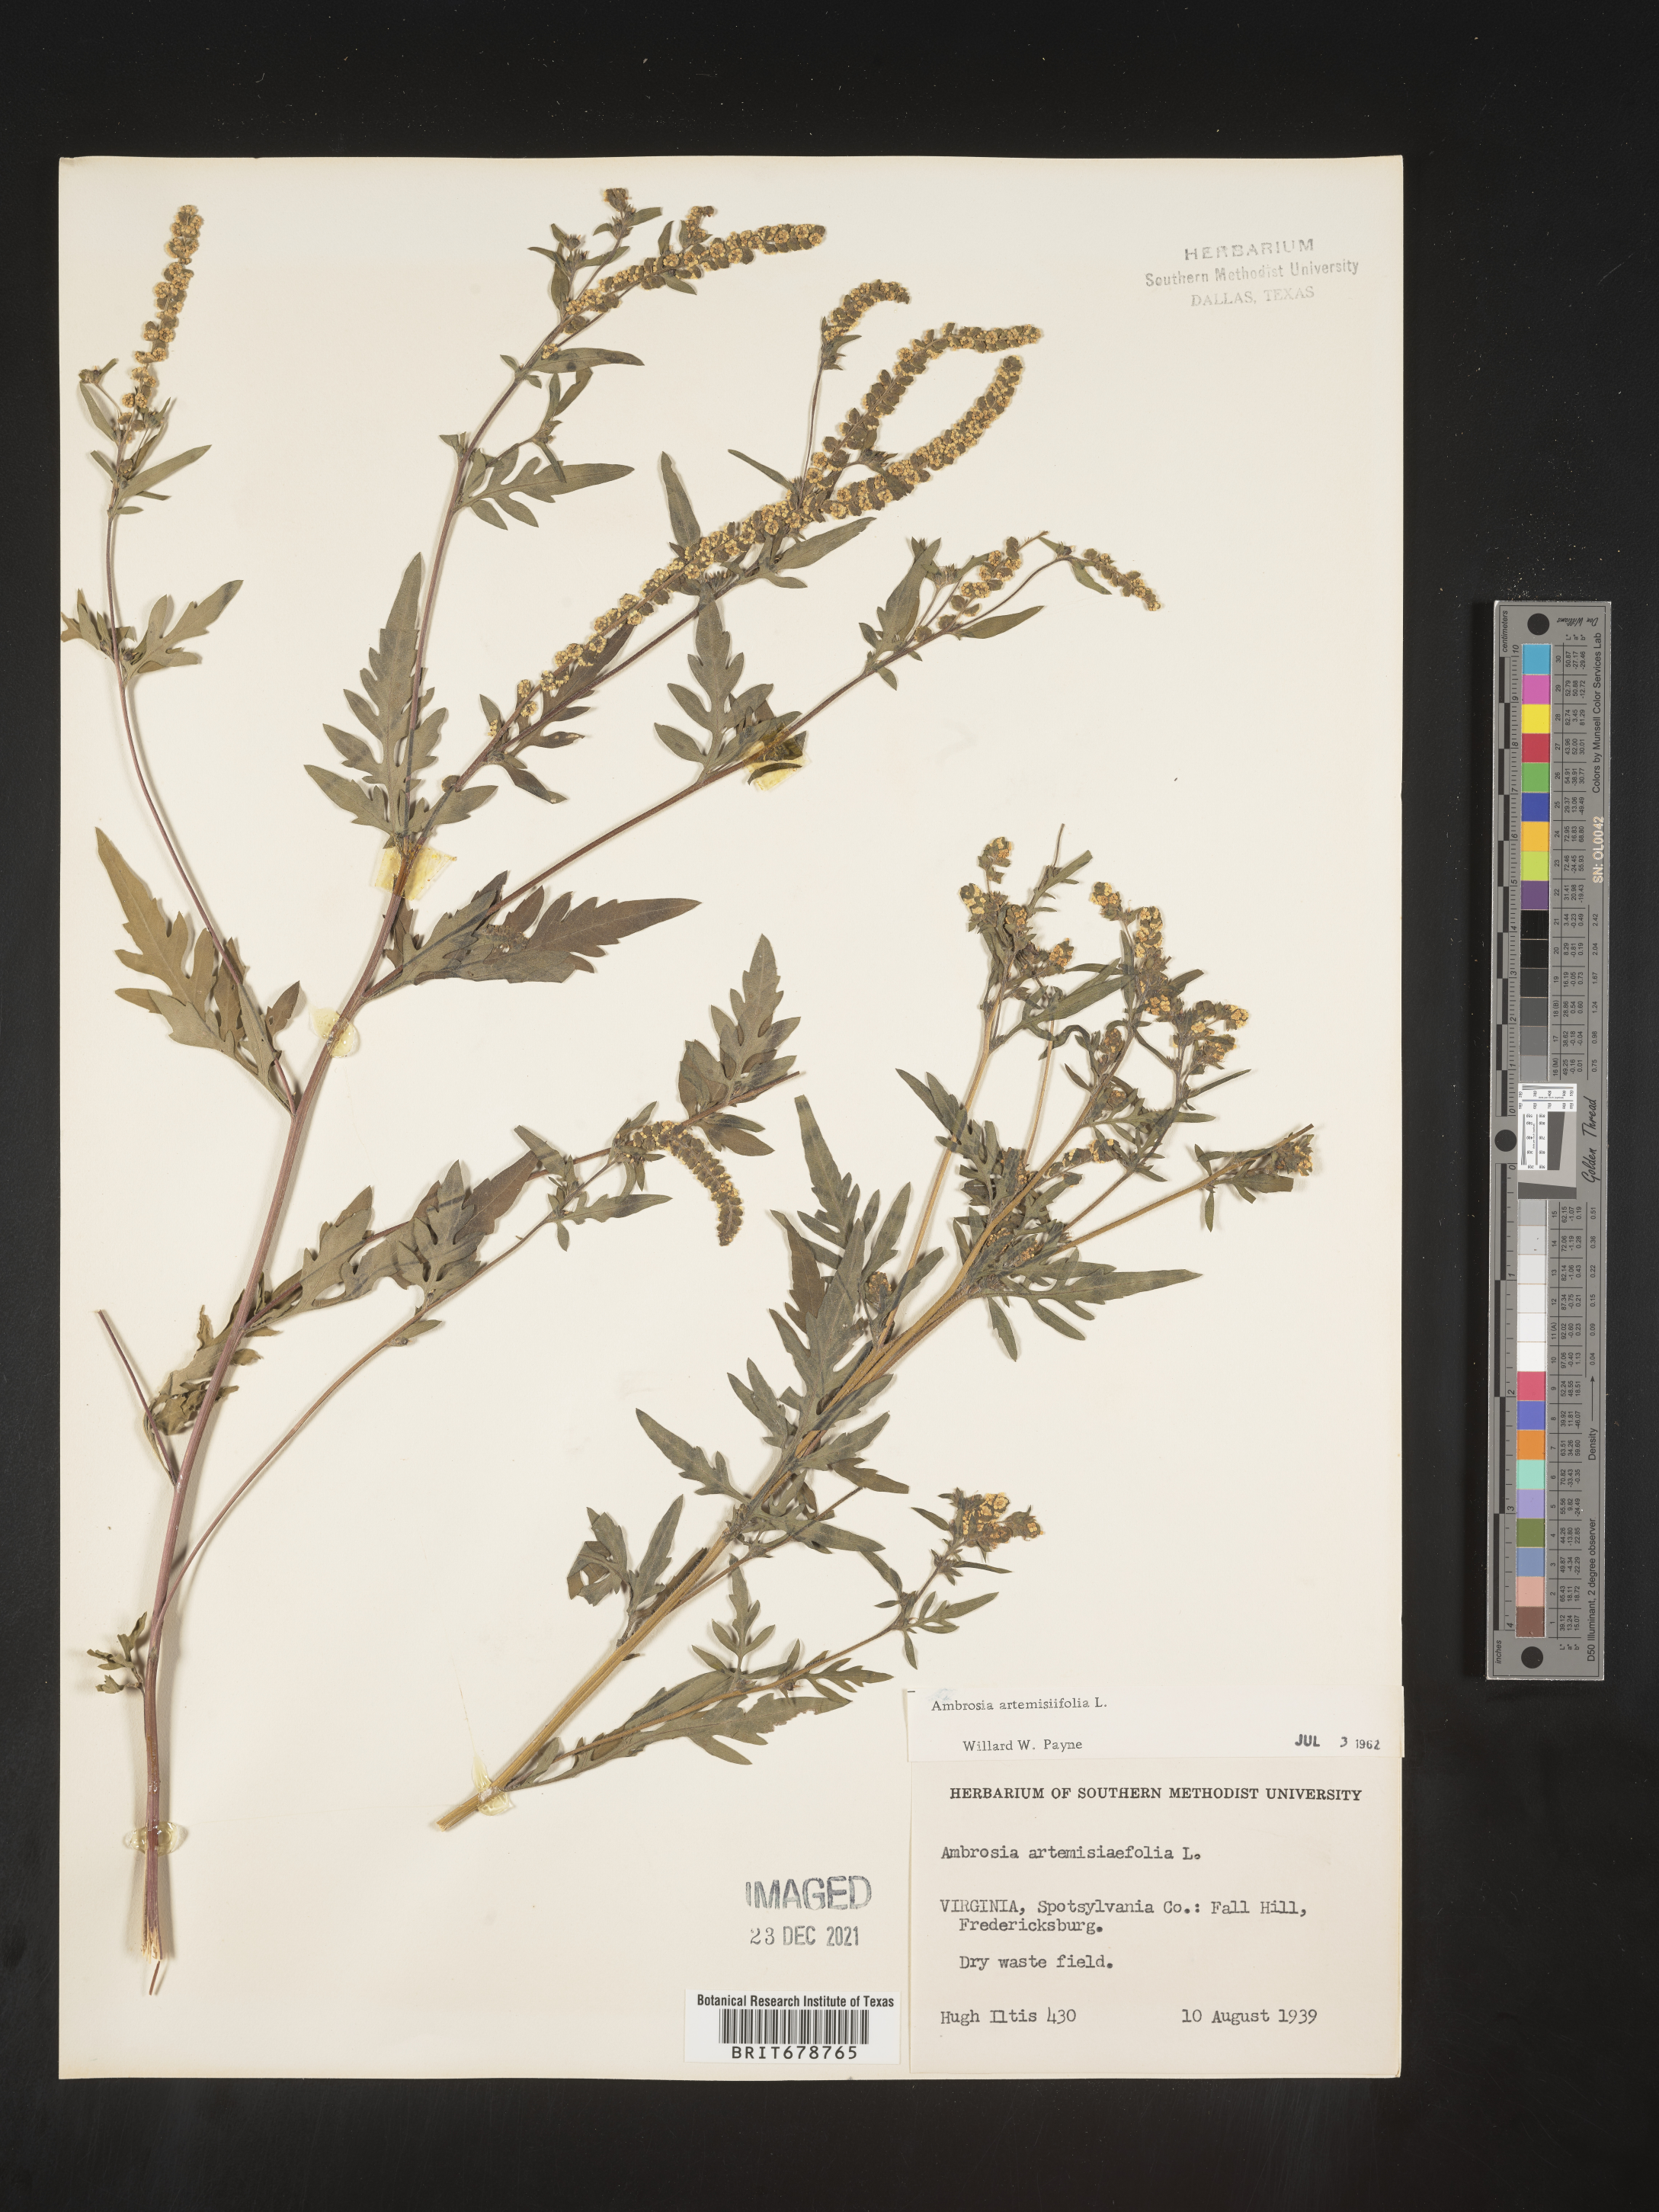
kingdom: Plantae
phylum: Tracheophyta
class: Magnoliopsida
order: Asterales
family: Asteraceae
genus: Ambrosia
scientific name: Ambrosia artemisiifolia
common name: Annual ragweed
